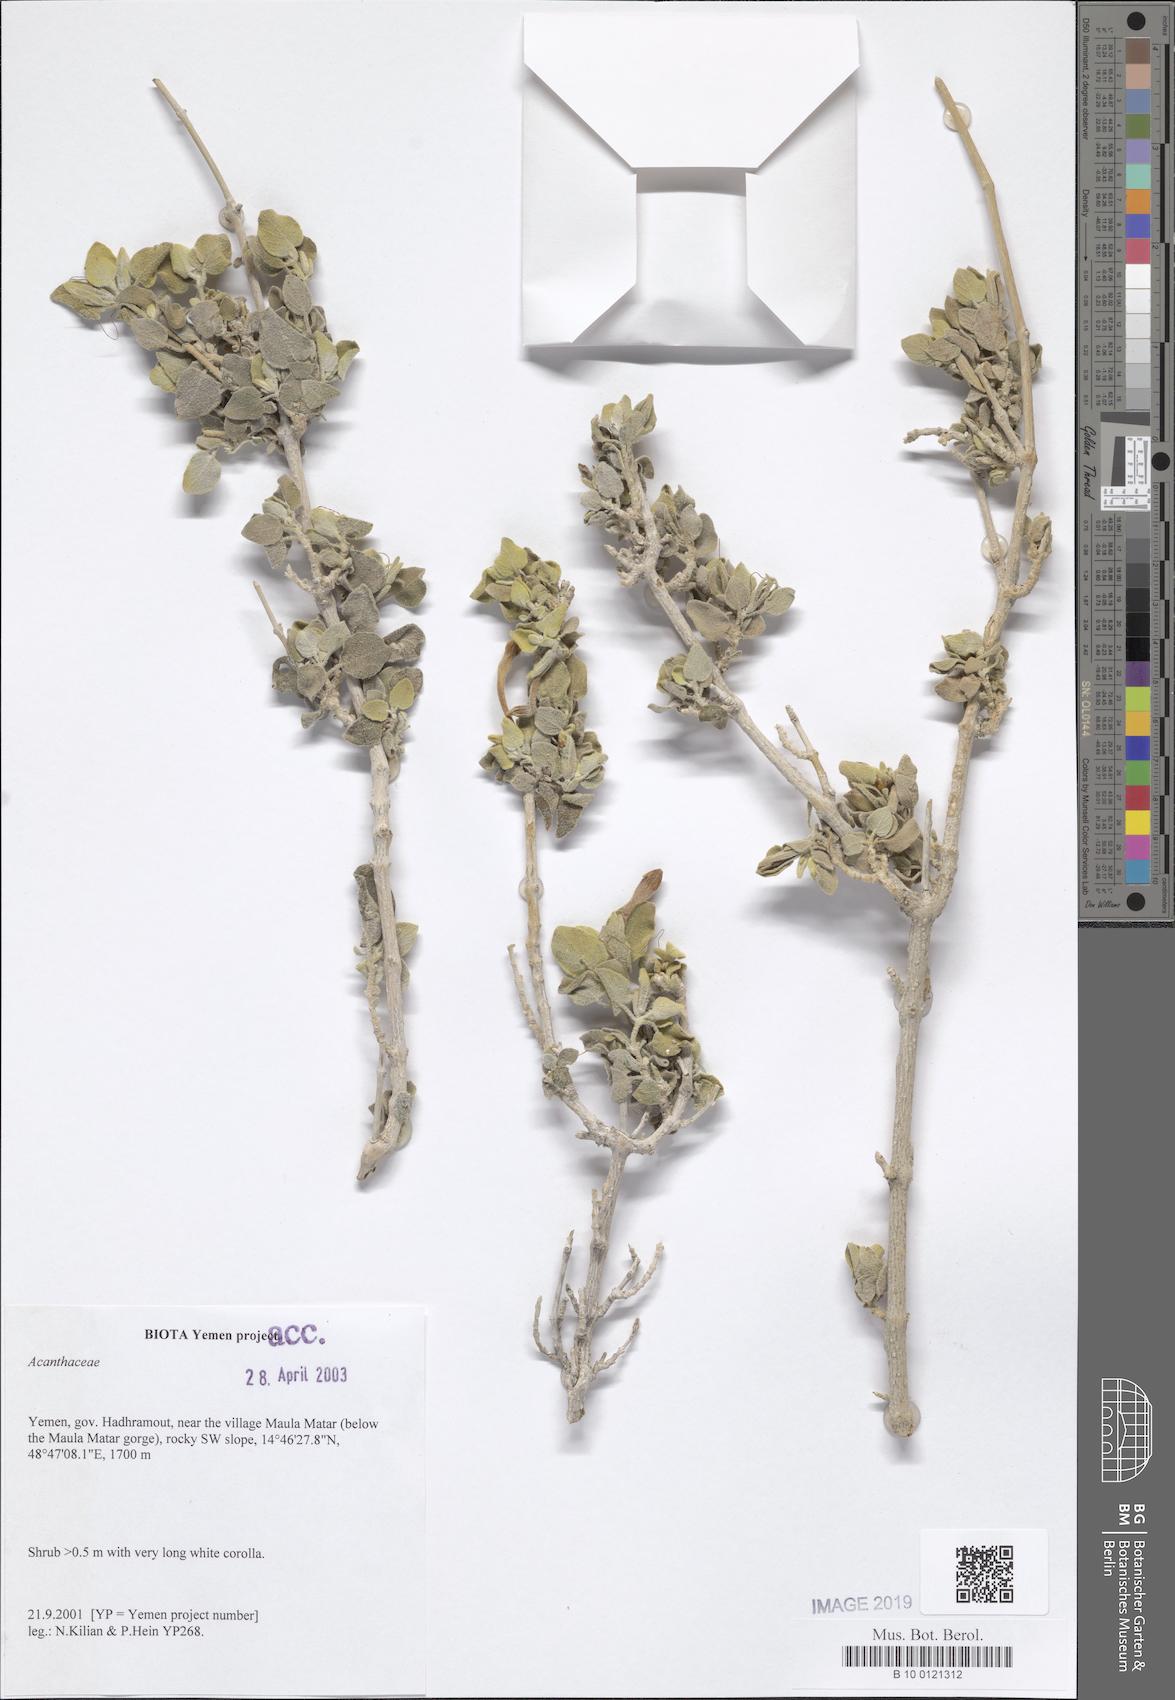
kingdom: Plantae
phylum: Tracheophyta
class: Magnoliopsida
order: Lamiales
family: Acanthaceae
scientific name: Acanthaceae
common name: Acanthaceae
